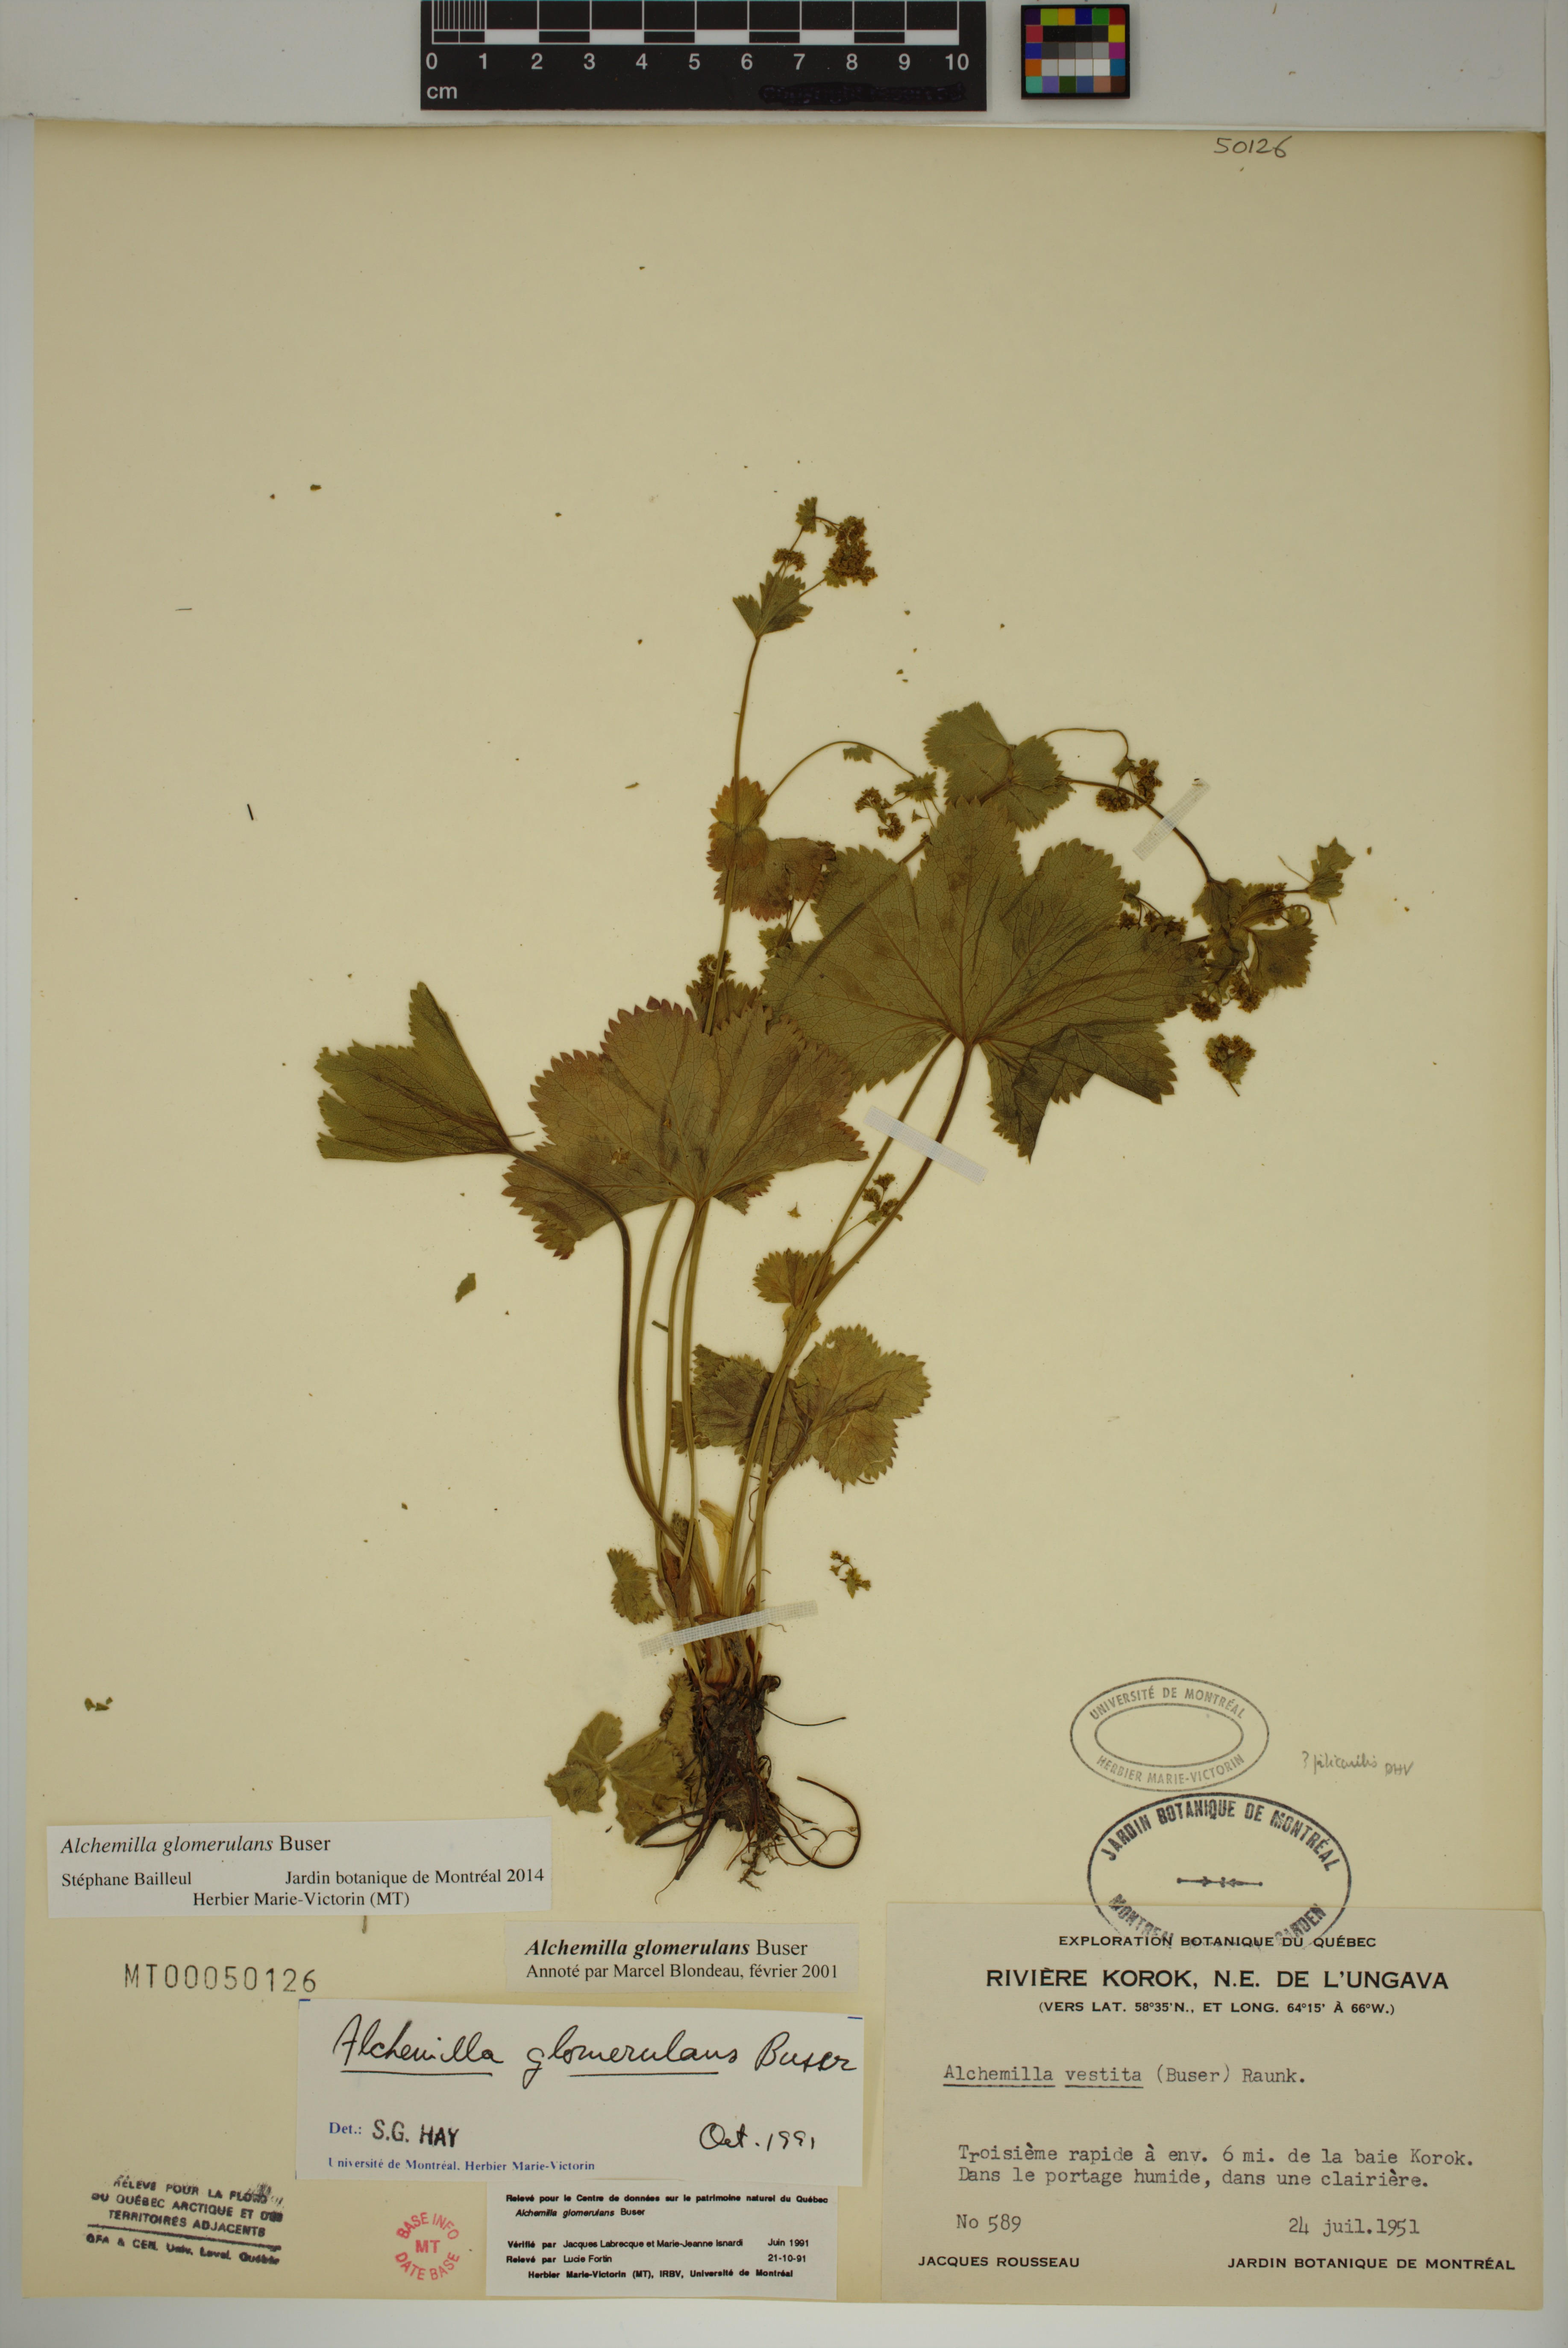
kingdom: Plantae
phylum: Tracheophyta
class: Magnoliopsida
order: Rosales
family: Rosaceae
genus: Alchemilla
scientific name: Alchemilla glomerulans
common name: Clustered lady's mantle
